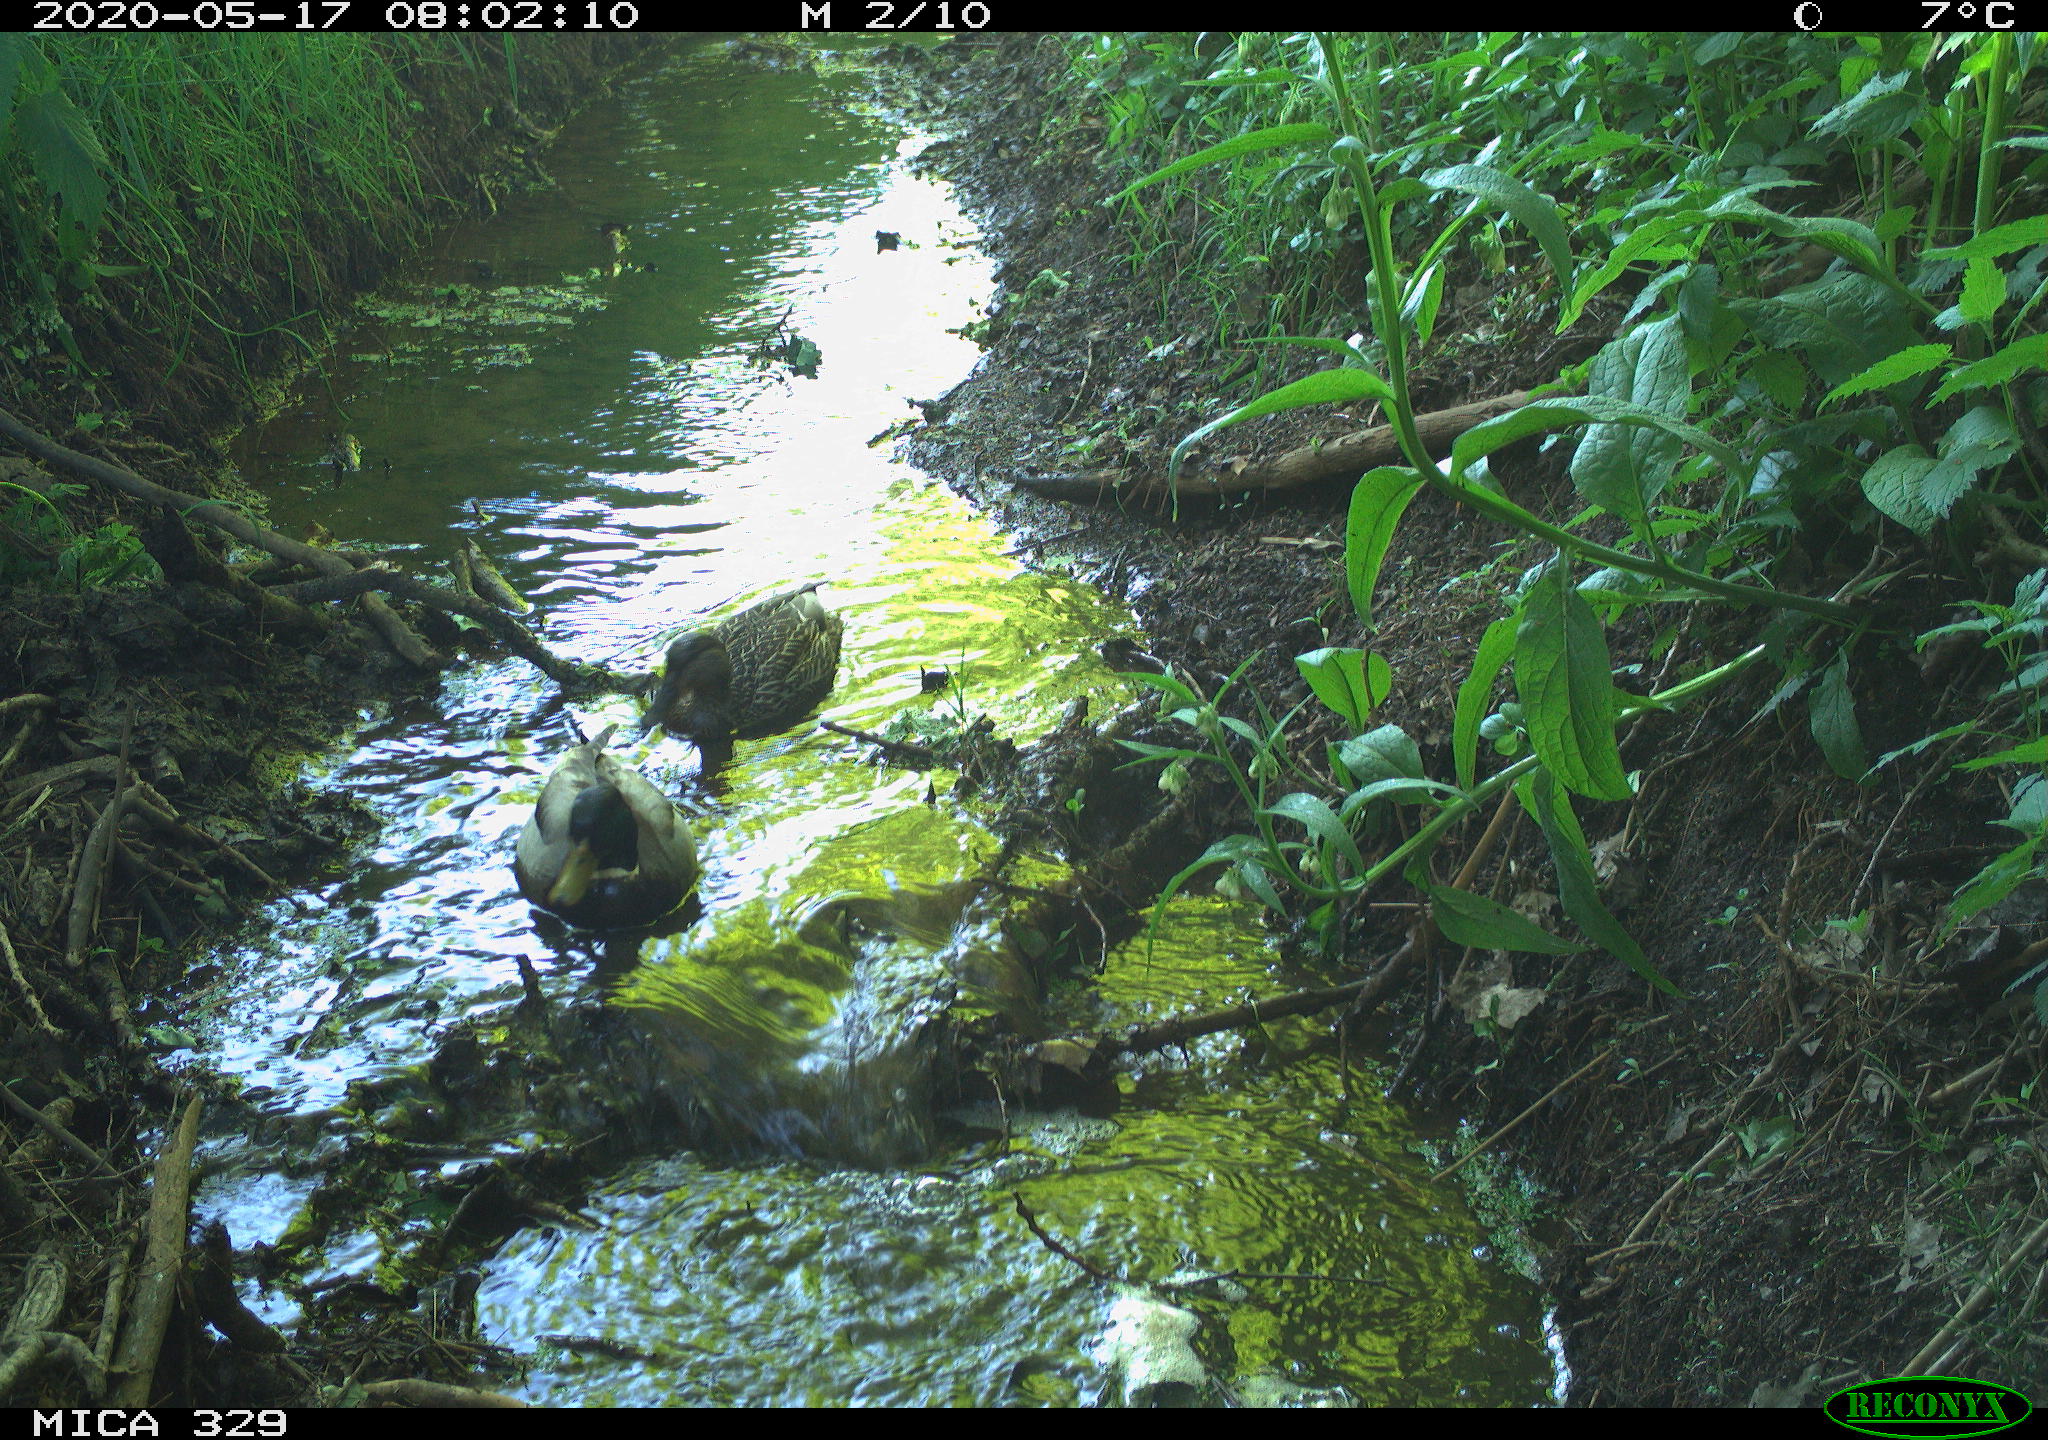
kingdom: Animalia
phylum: Chordata
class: Aves
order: Anseriformes
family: Anatidae
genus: Anas
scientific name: Anas platyrhynchos
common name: Mallard
